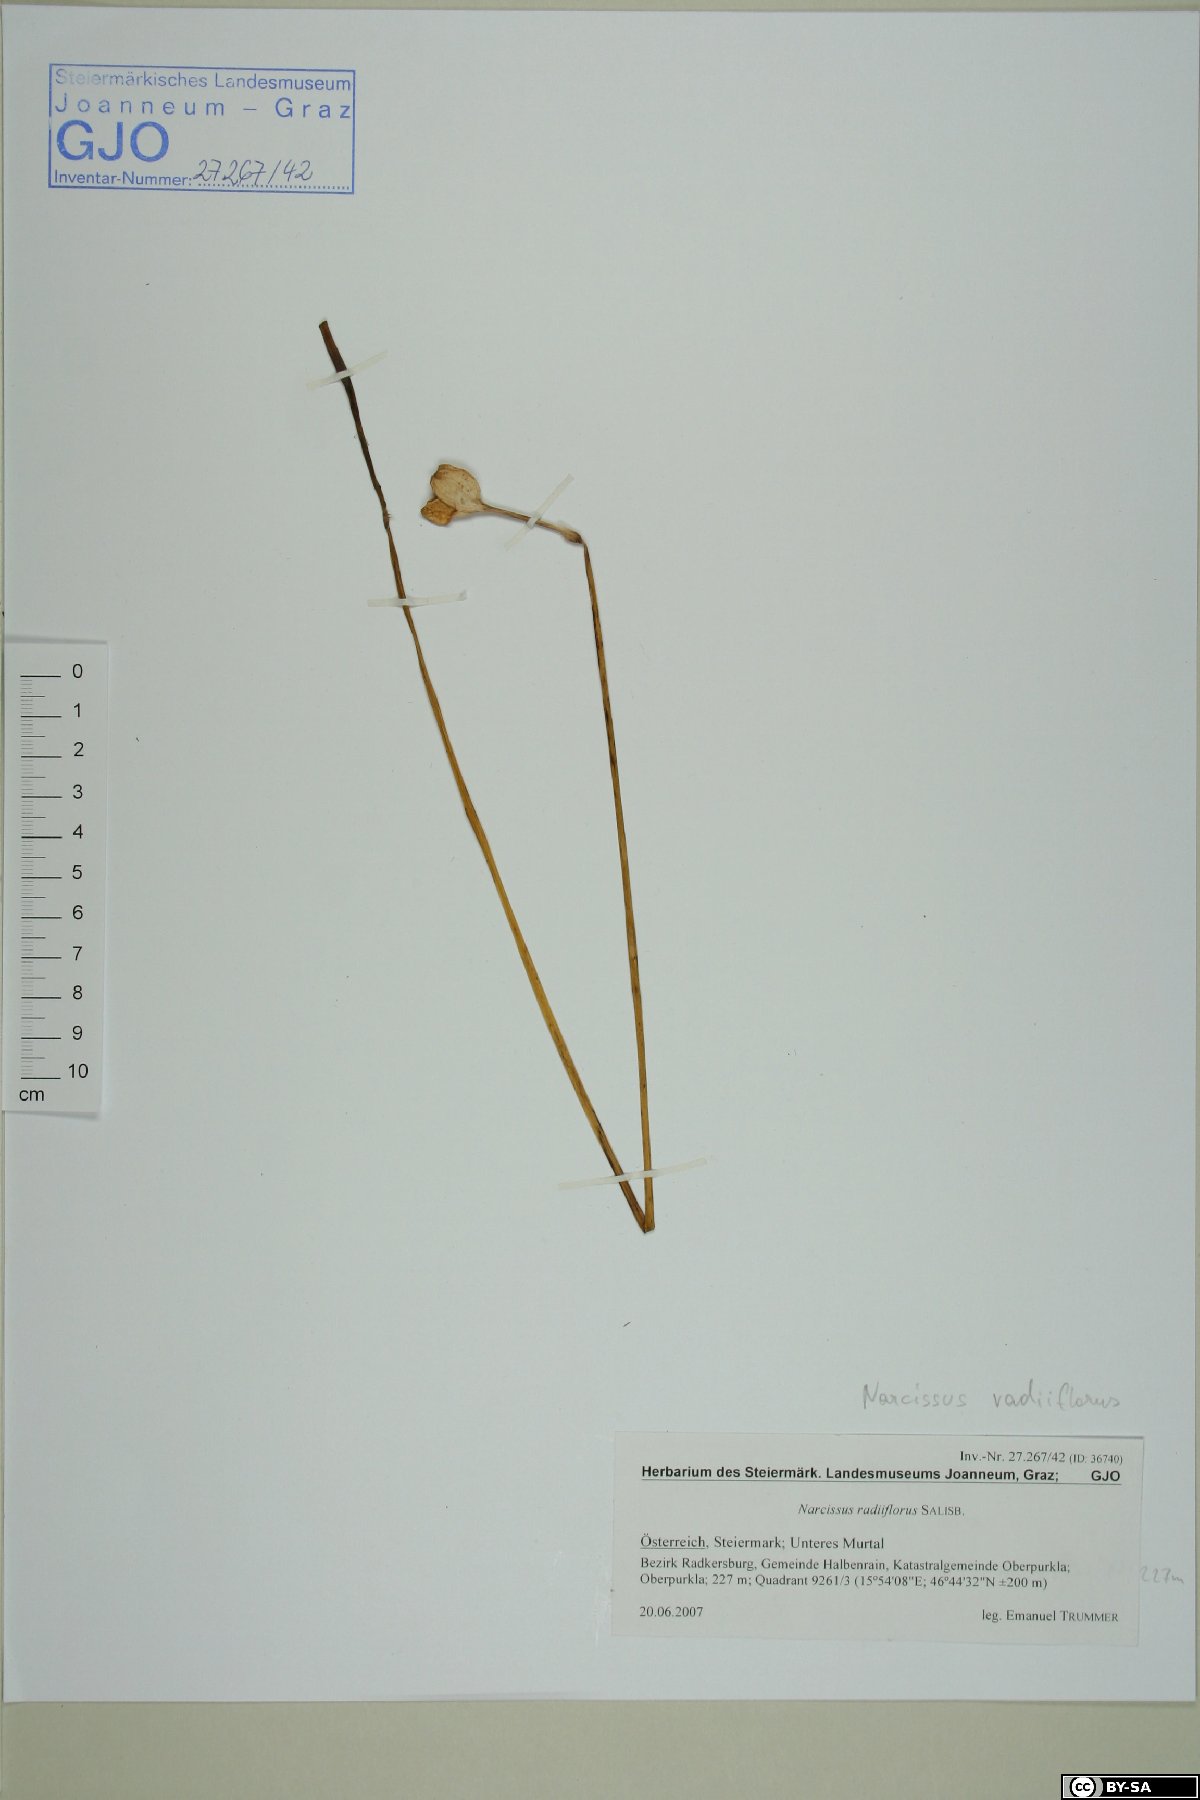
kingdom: Plantae
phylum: Tracheophyta
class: Liliopsida
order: Asparagales
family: Amaryllidaceae
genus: Narcissus
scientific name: Narcissus poeticus
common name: Pheasant's-eye daffodil
